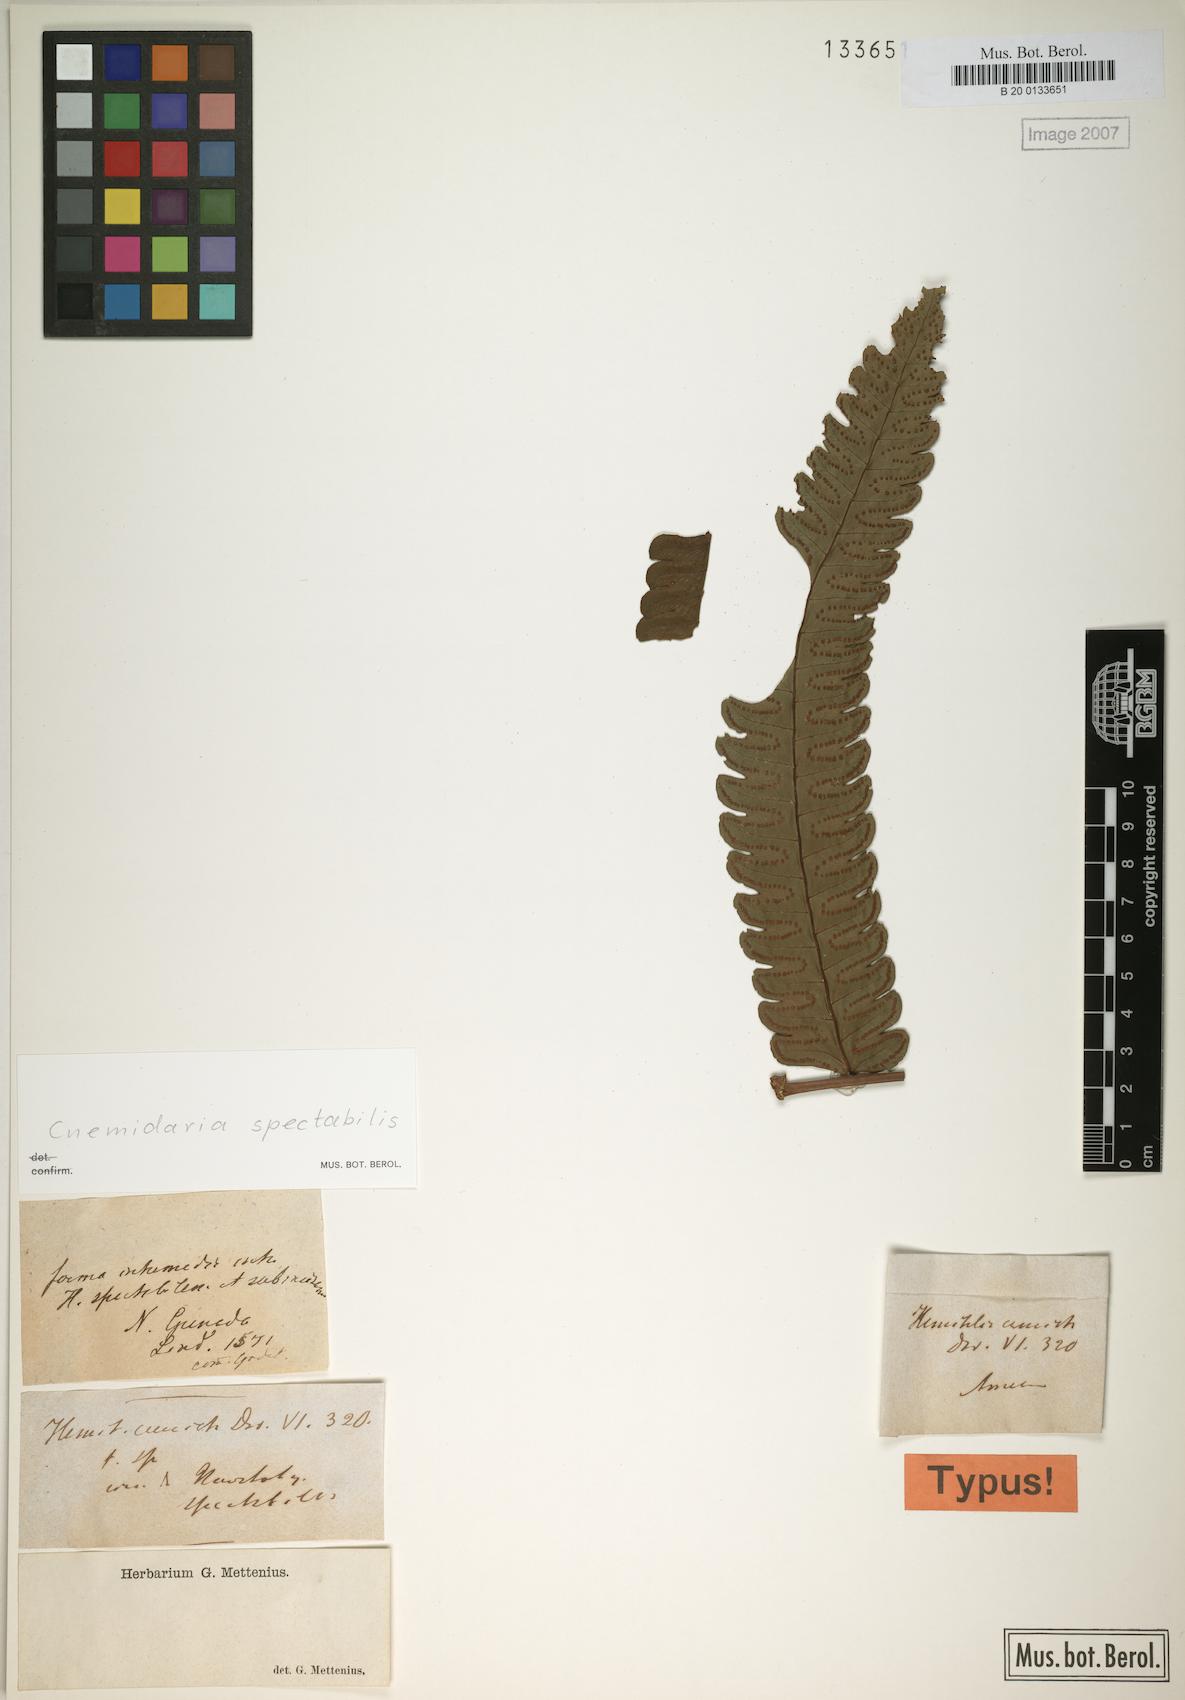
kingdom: Plantae
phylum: Tracheophyta
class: Polypodiopsida
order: Cyatheales
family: Cyatheaceae
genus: Cyathea
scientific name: Cyathea spectabilis
